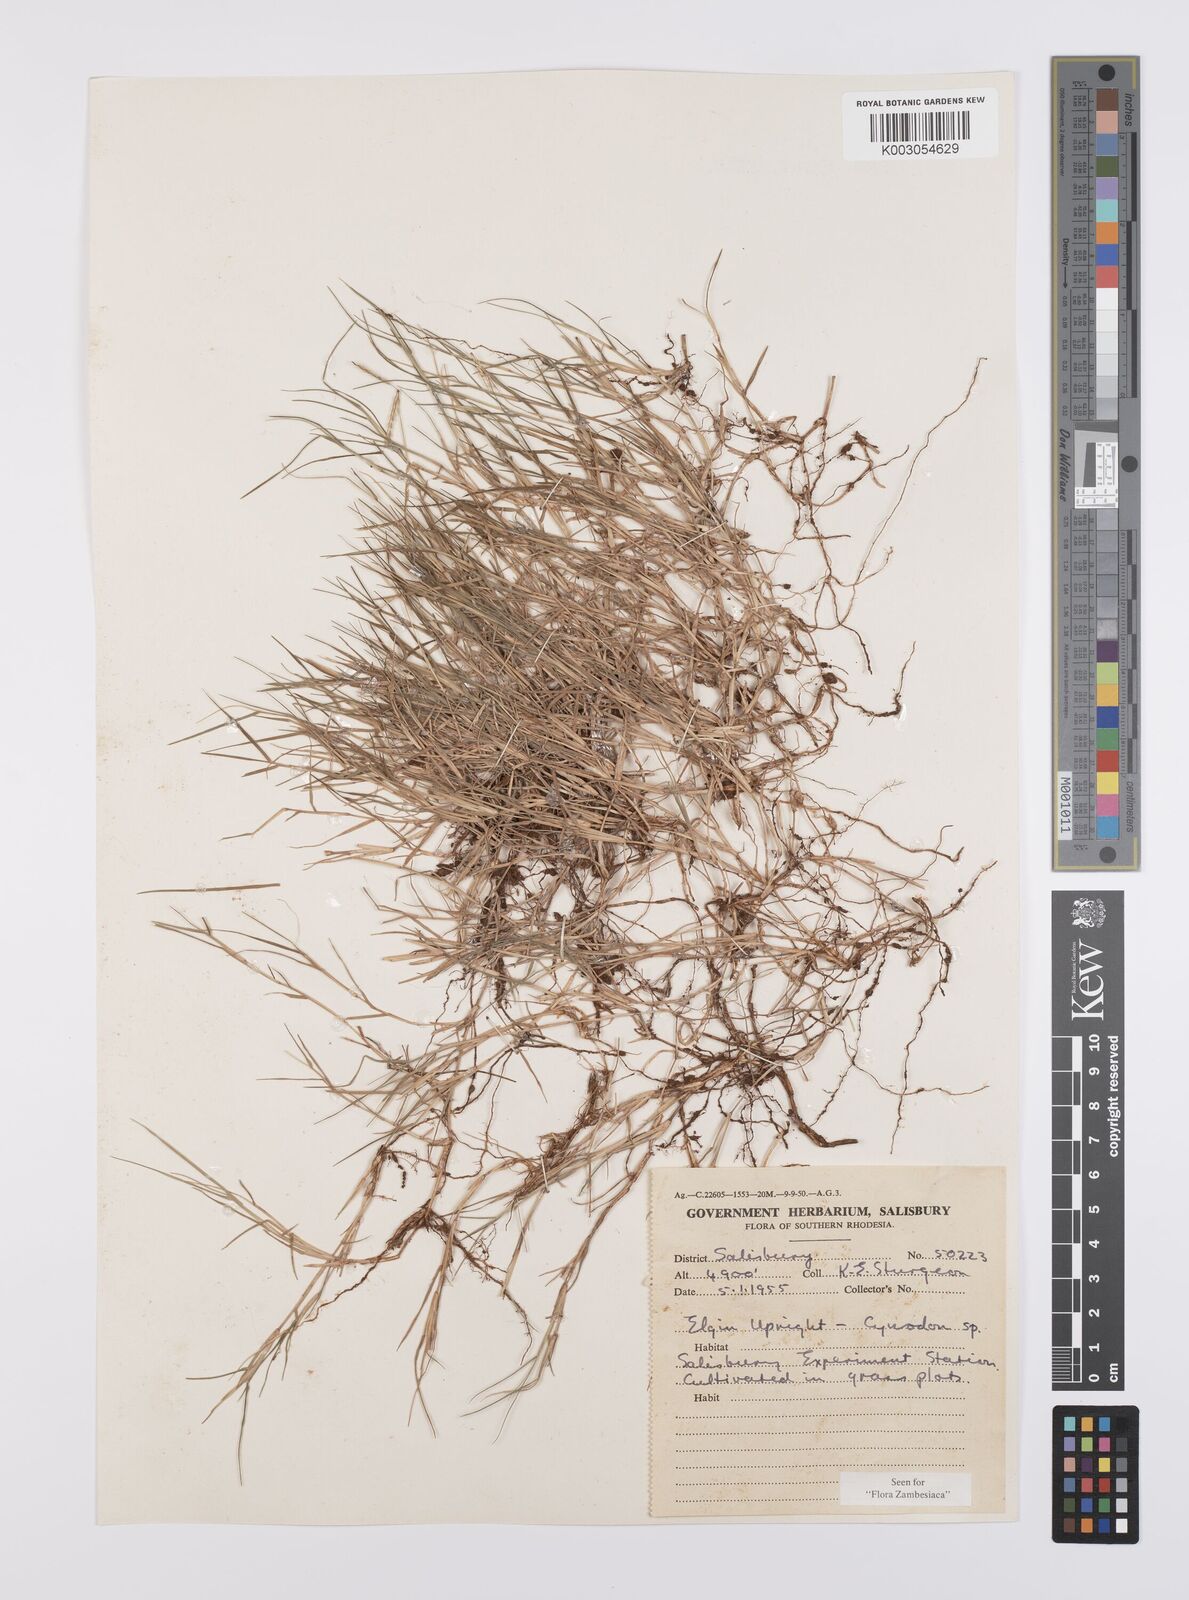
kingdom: Plantae
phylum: Tracheophyta
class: Liliopsida
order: Poales
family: Poaceae
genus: Cynodon
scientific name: Cynodon dactylon
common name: Bermuda grass
